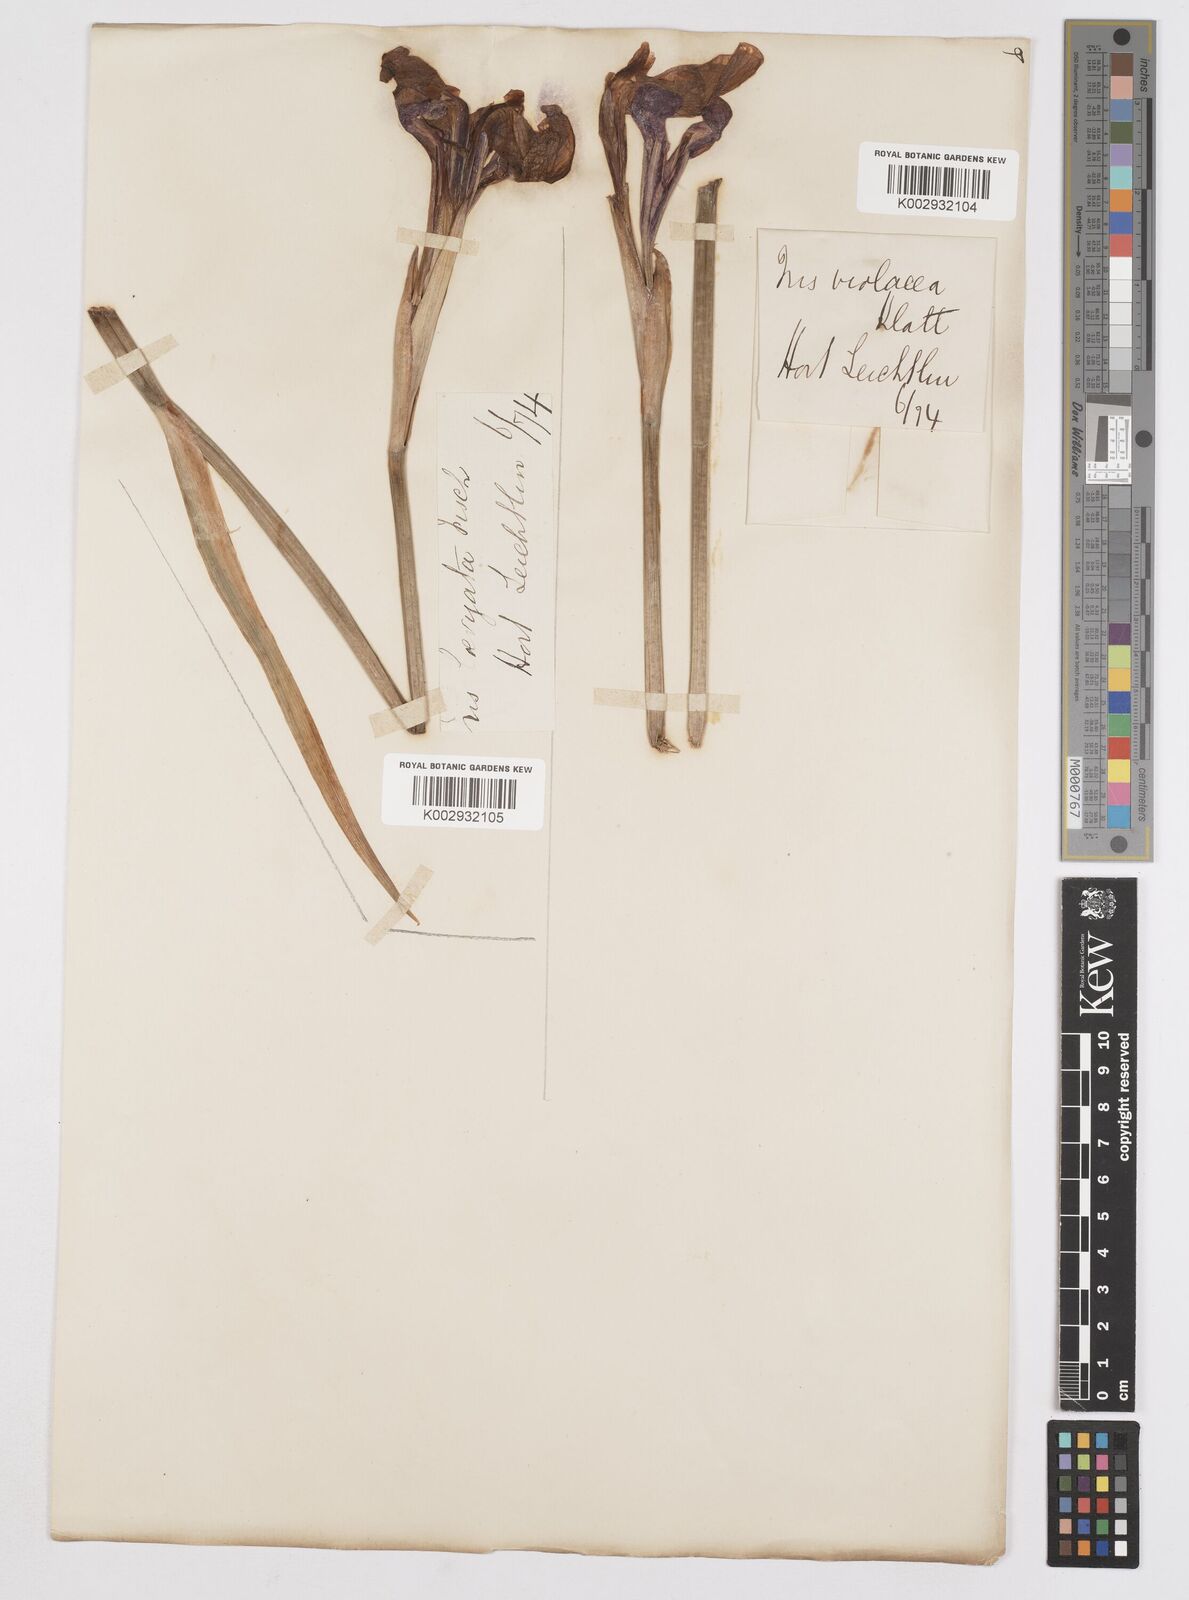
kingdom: Plantae
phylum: Tracheophyta
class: Liliopsida
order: Asparagales
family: Iridaceae
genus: Iris
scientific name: Iris laevigata
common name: Japanese iris
